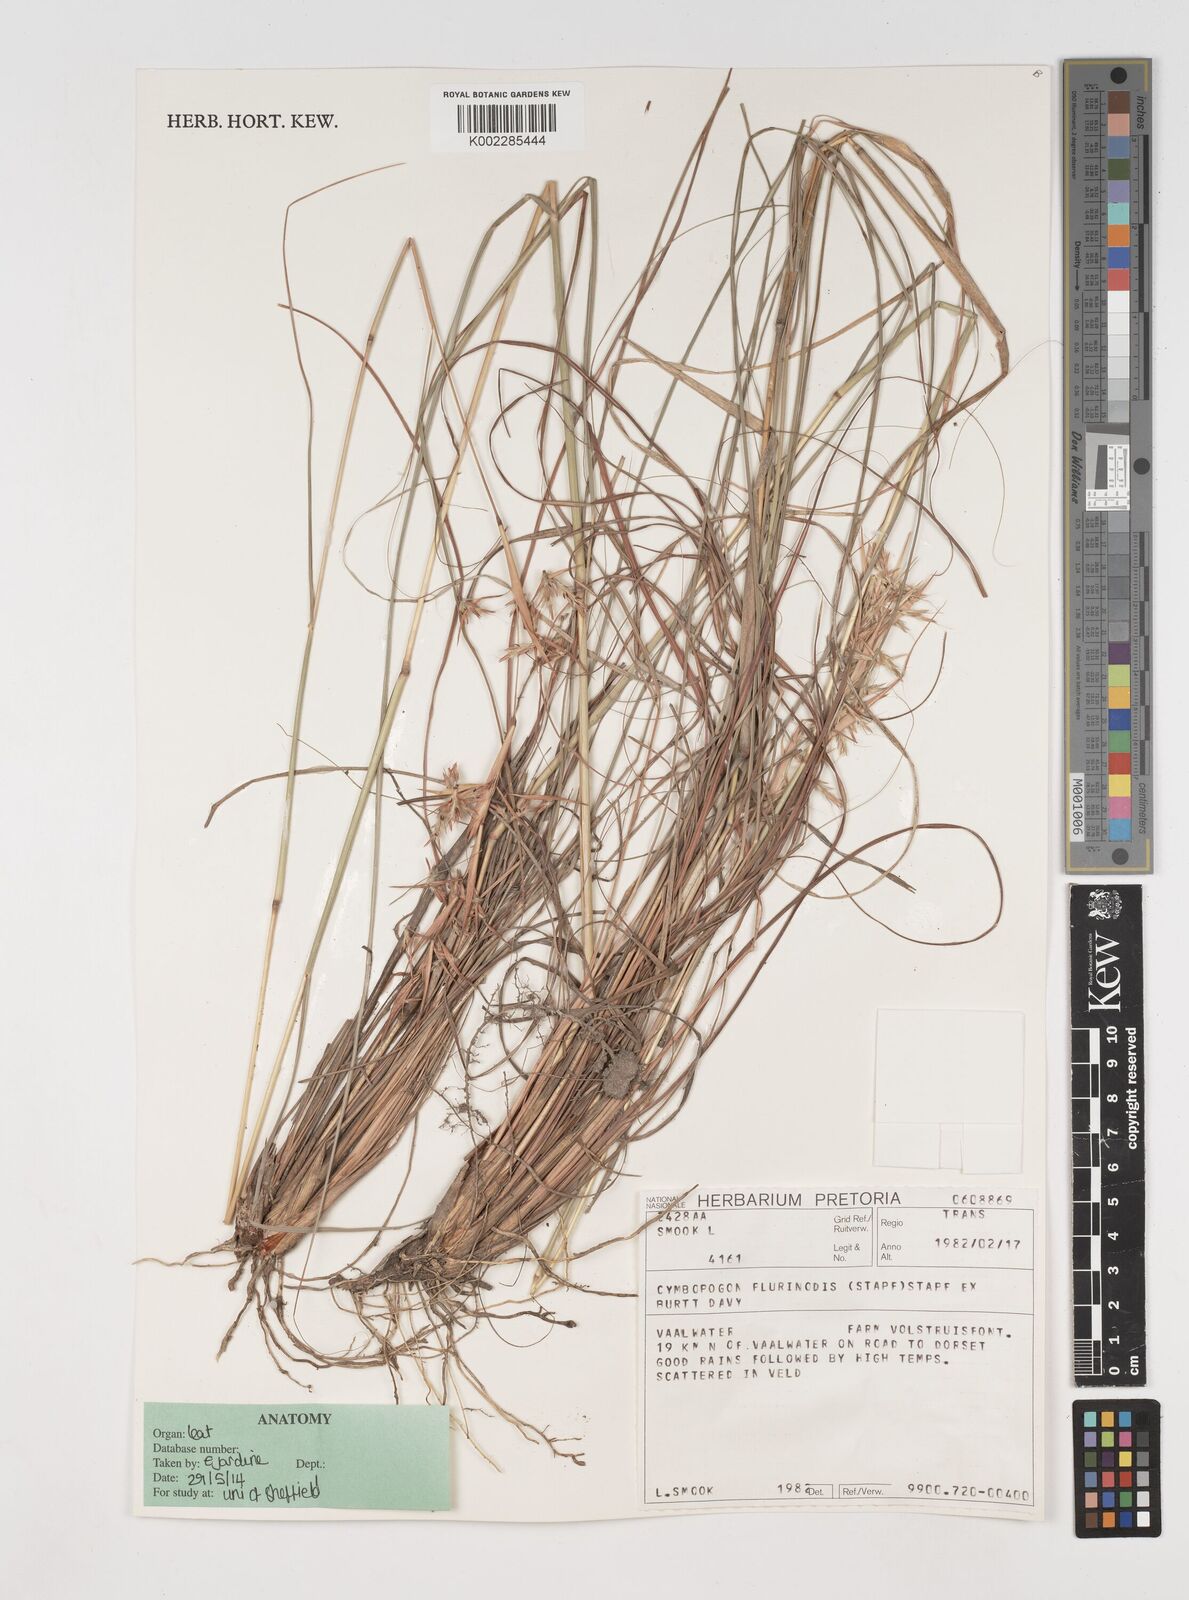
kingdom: Plantae
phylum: Tracheophyta
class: Liliopsida
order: Poales
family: Poaceae
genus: Cymbopogon
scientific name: Cymbopogon pospischilii
